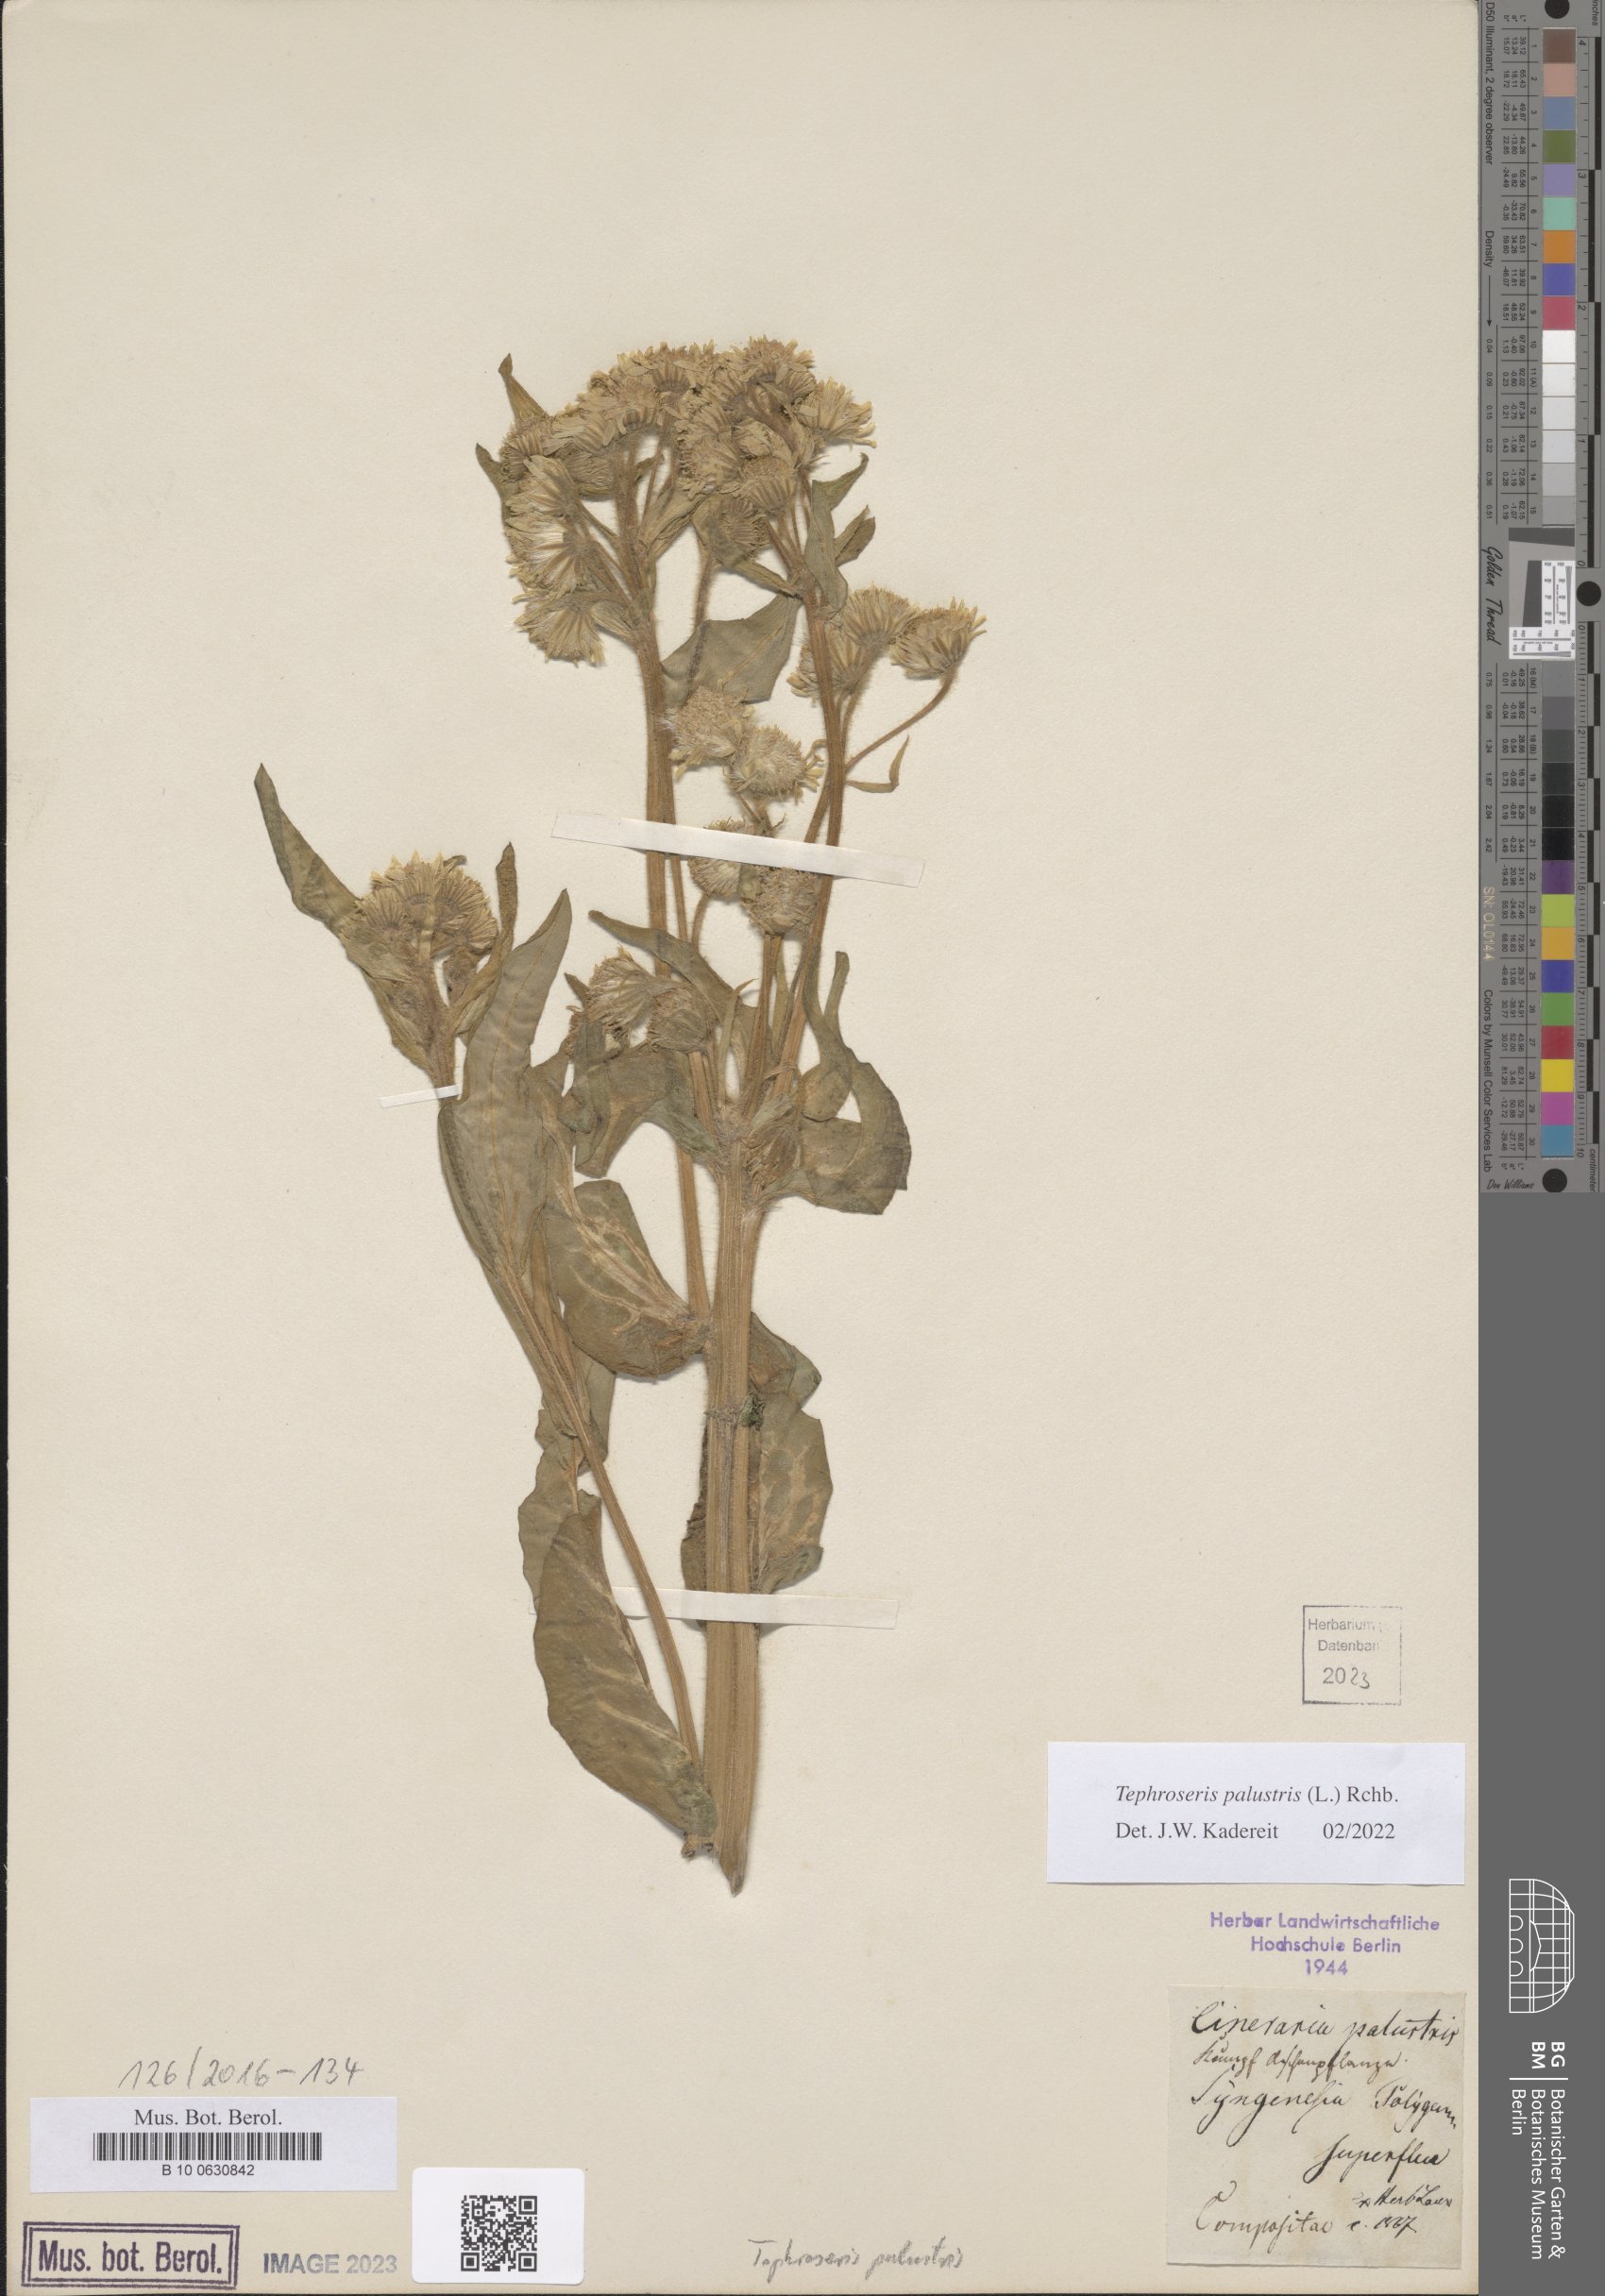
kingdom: Plantae
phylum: Tracheophyta
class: Magnoliopsida
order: Asterales
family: Asteraceae
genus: Tephroseris
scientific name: Tephroseris palustris
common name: Marsh fleawort
